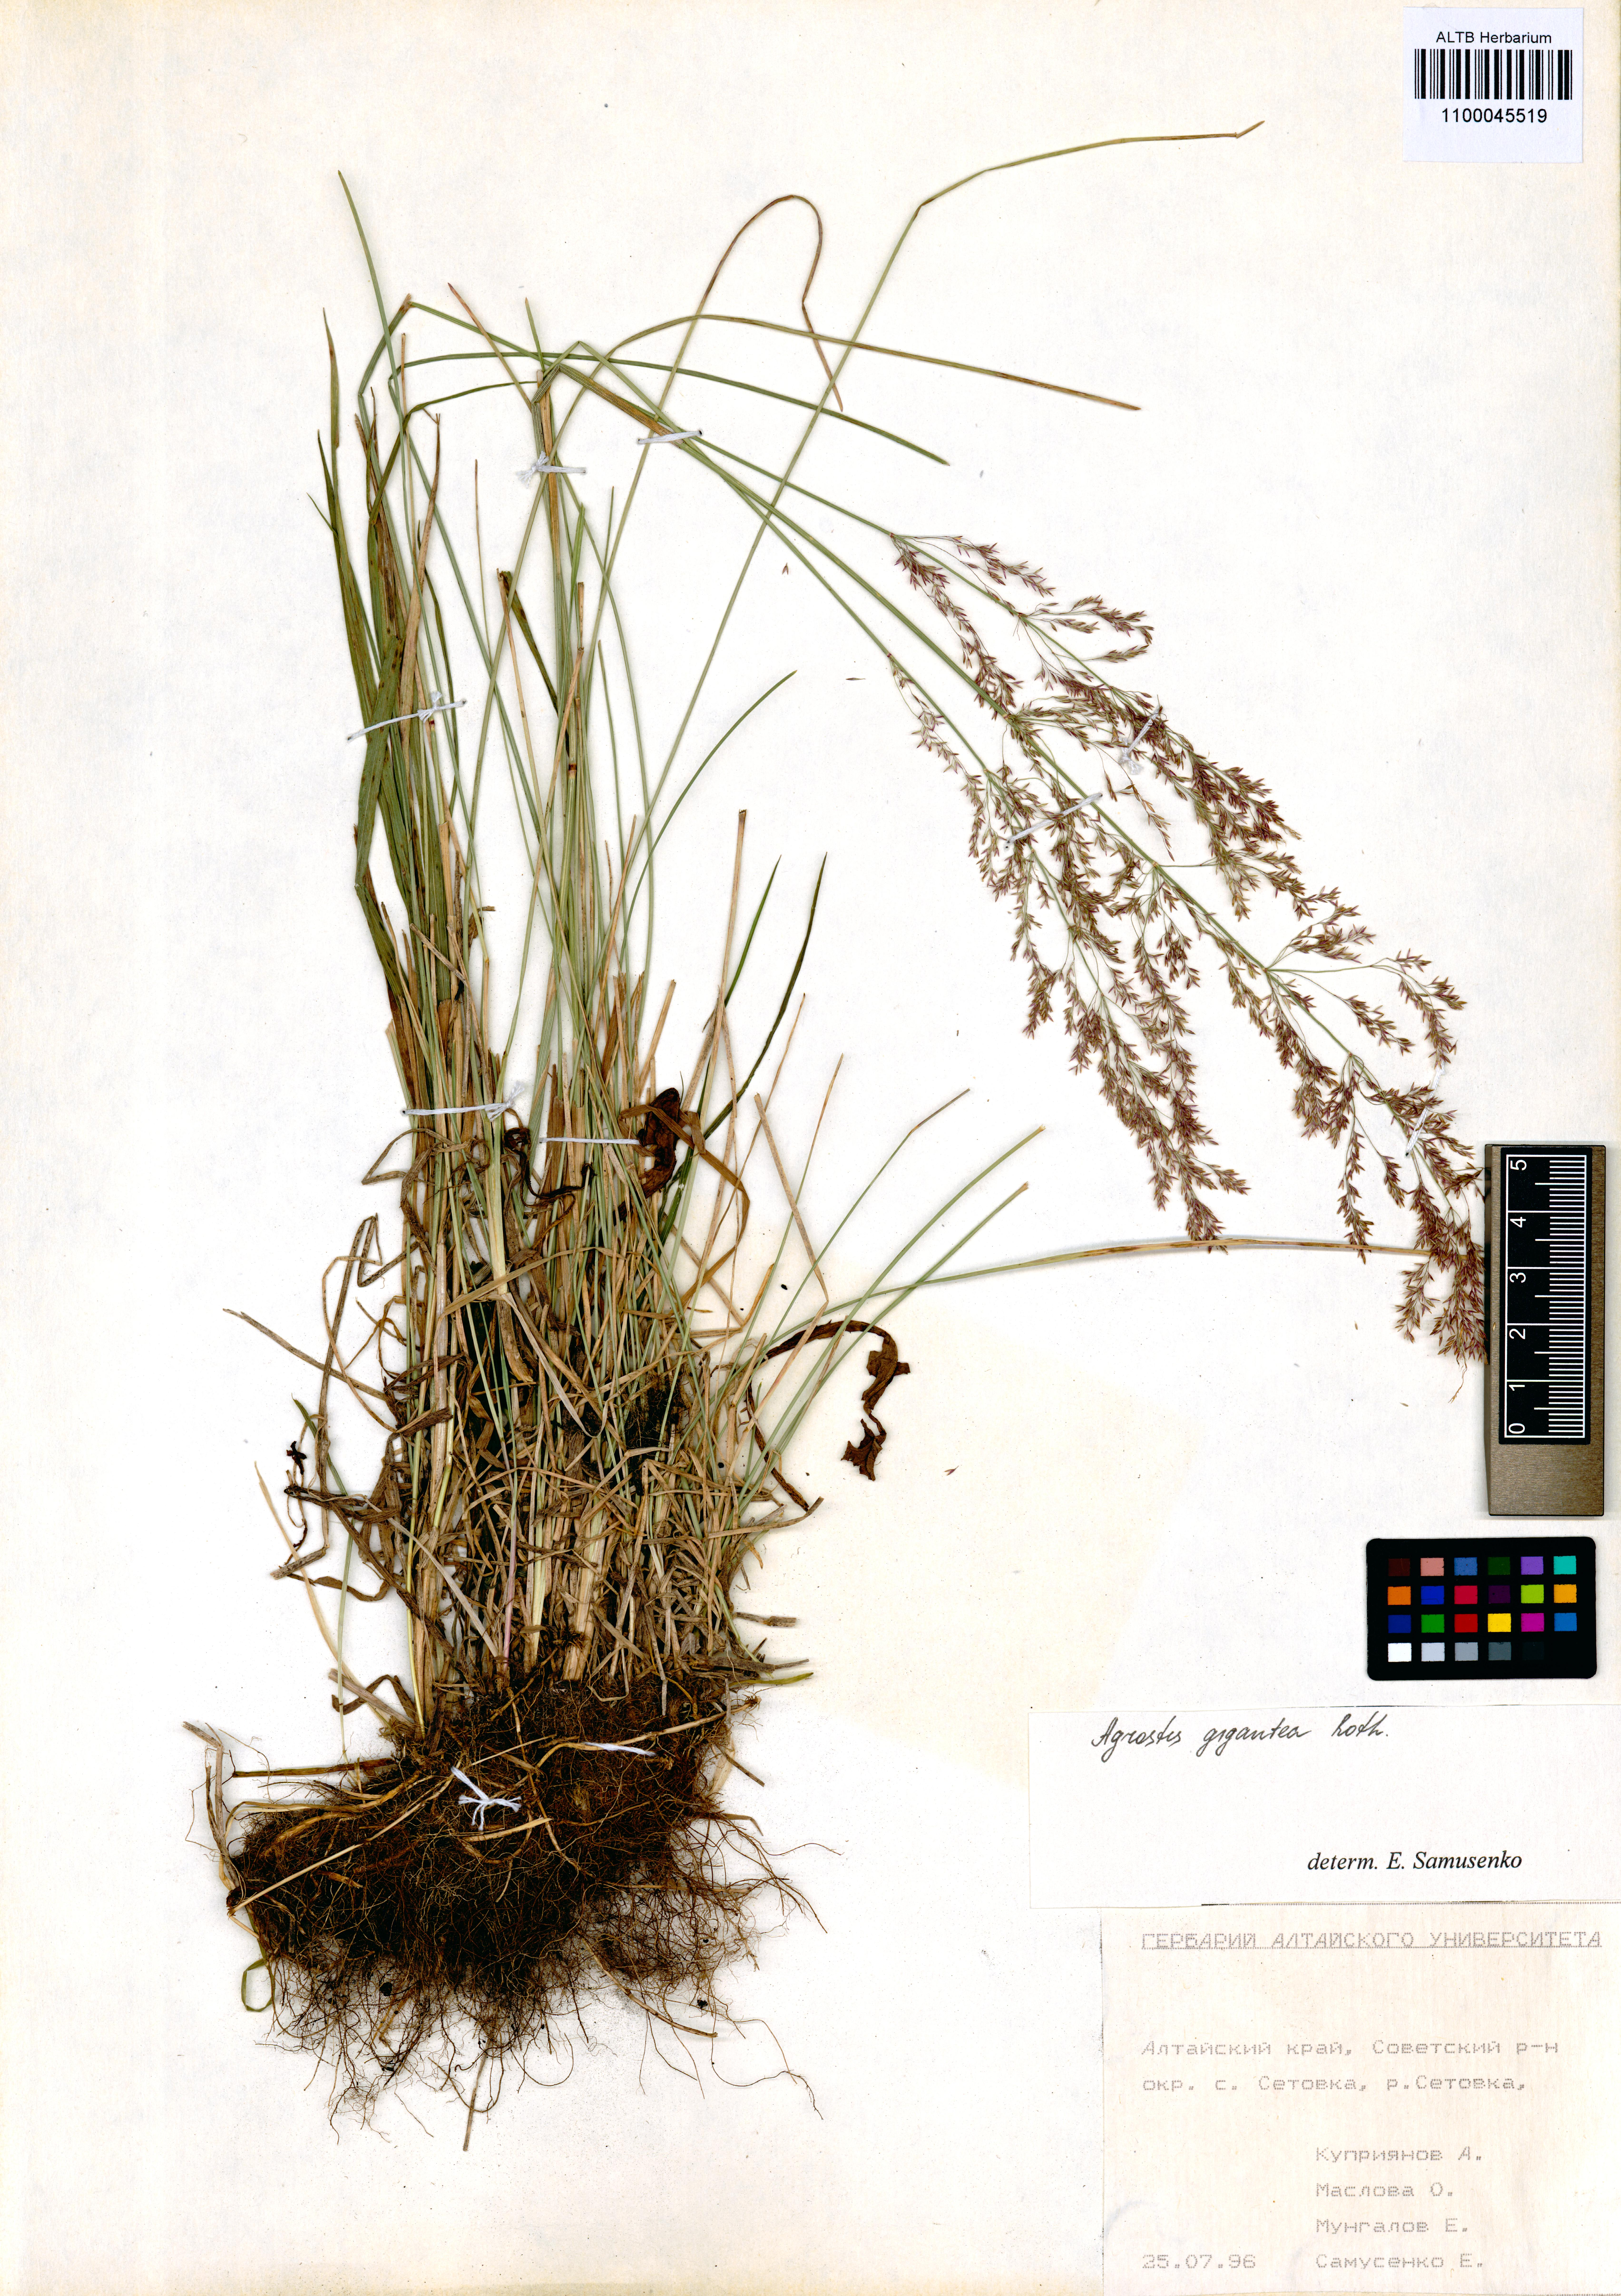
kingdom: Plantae
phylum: Tracheophyta
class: Liliopsida
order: Poales
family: Poaceae
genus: Agrostis
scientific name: Agrostis gigantea
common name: Black bent
